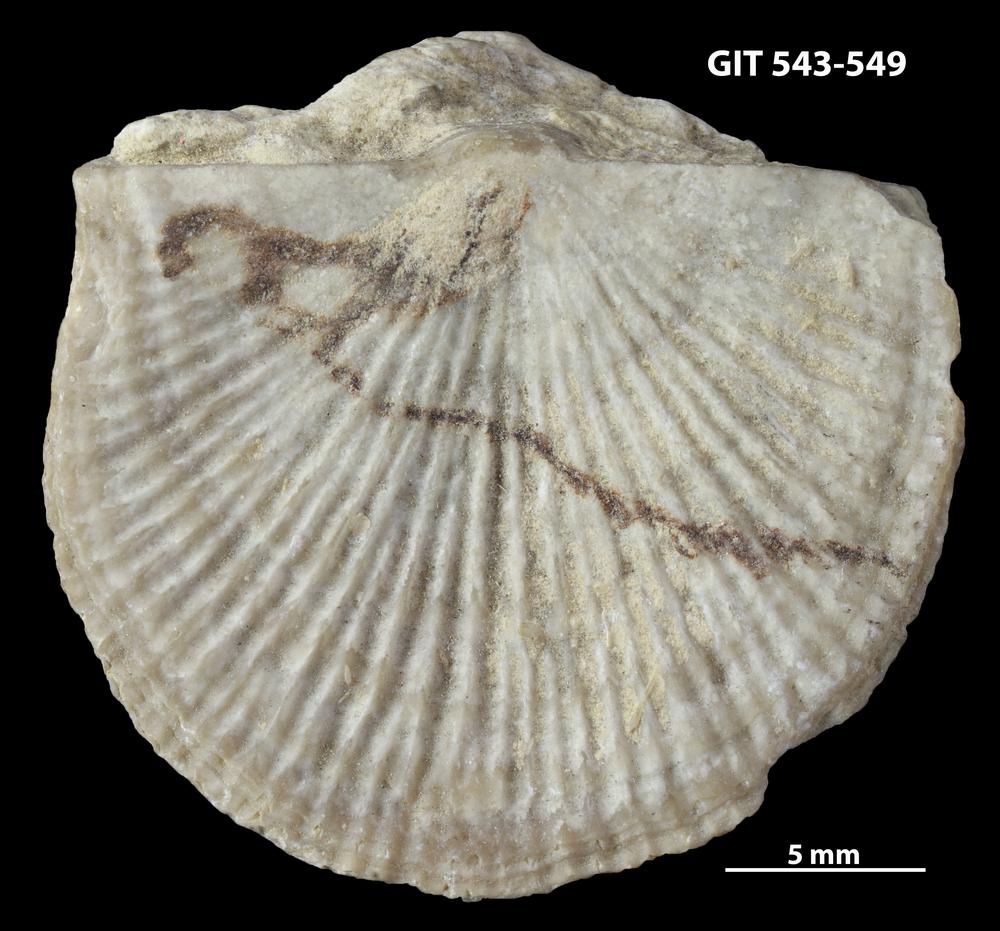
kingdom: Animalia
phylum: Brachiopoda
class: Rhynchonellata
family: Clitambonitidae
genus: Vellamo
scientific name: Vellamo
